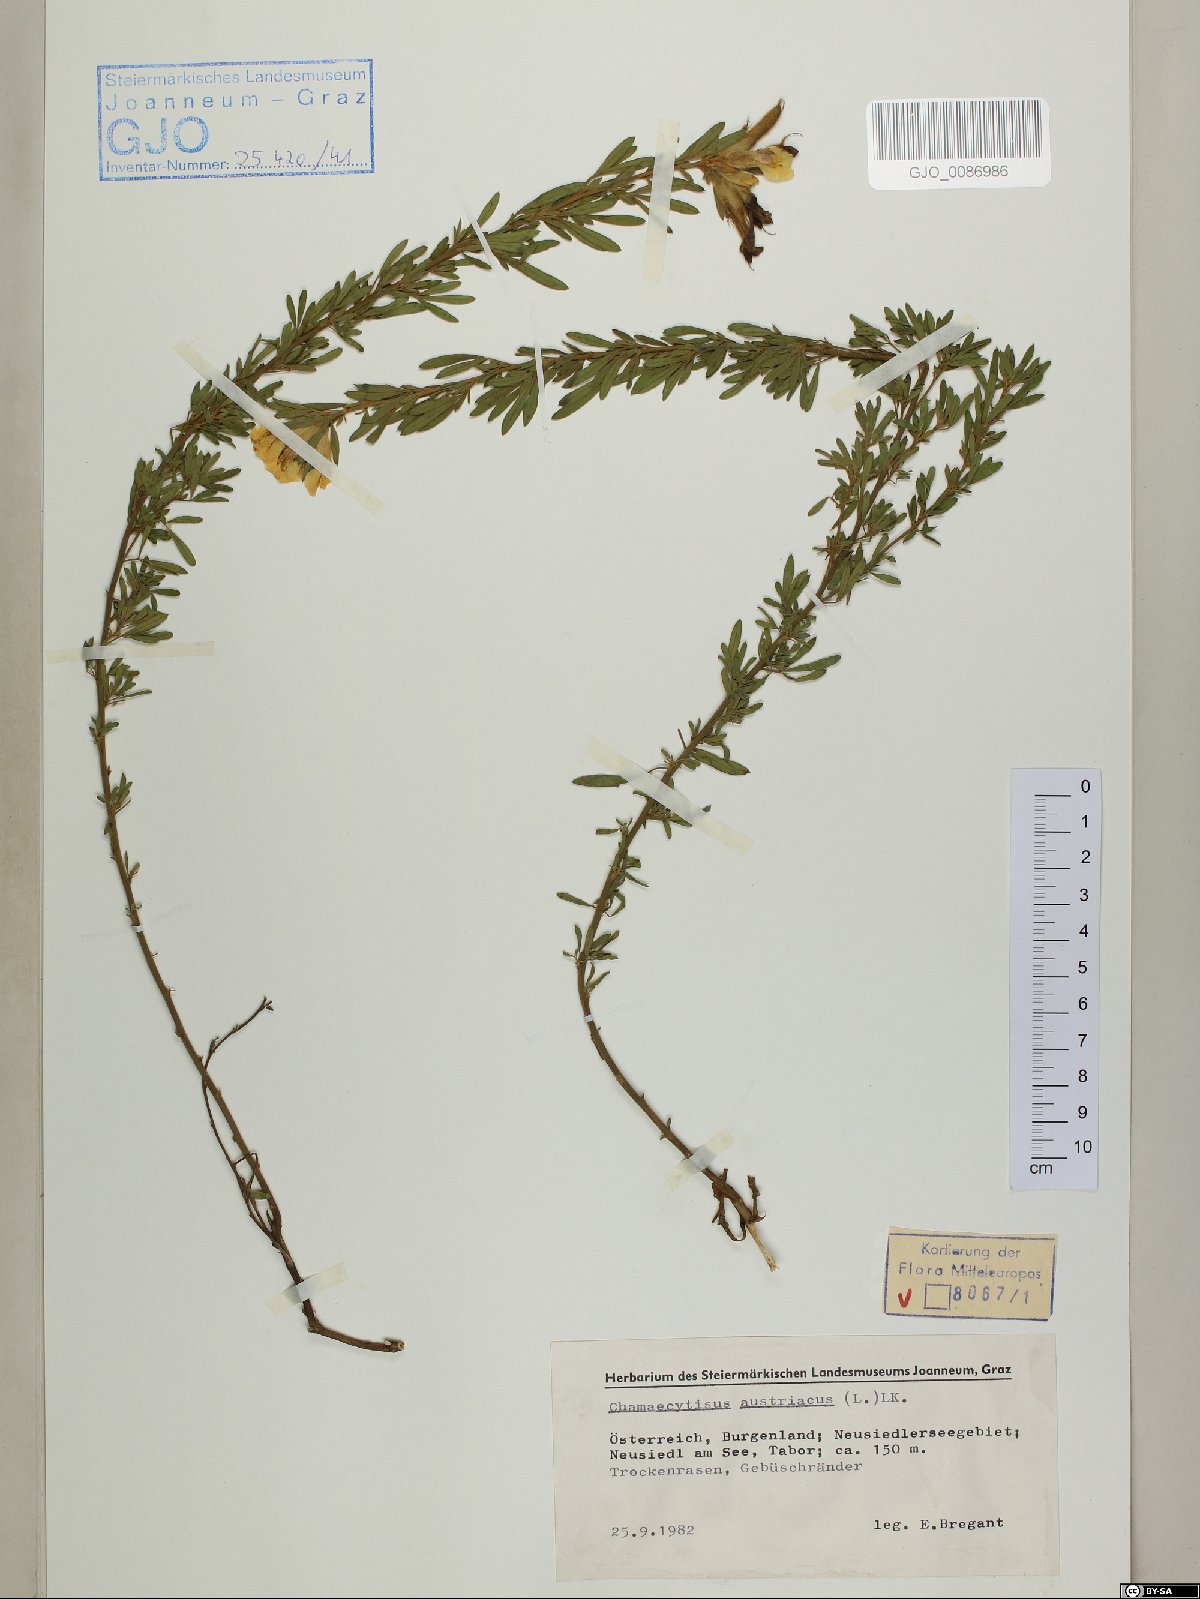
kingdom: Plantae
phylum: Tracheophyta
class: Magnoliopsida
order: Fabales
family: Fabaceae
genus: Chamaecytisus
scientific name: Chamaecytisus austriacus
